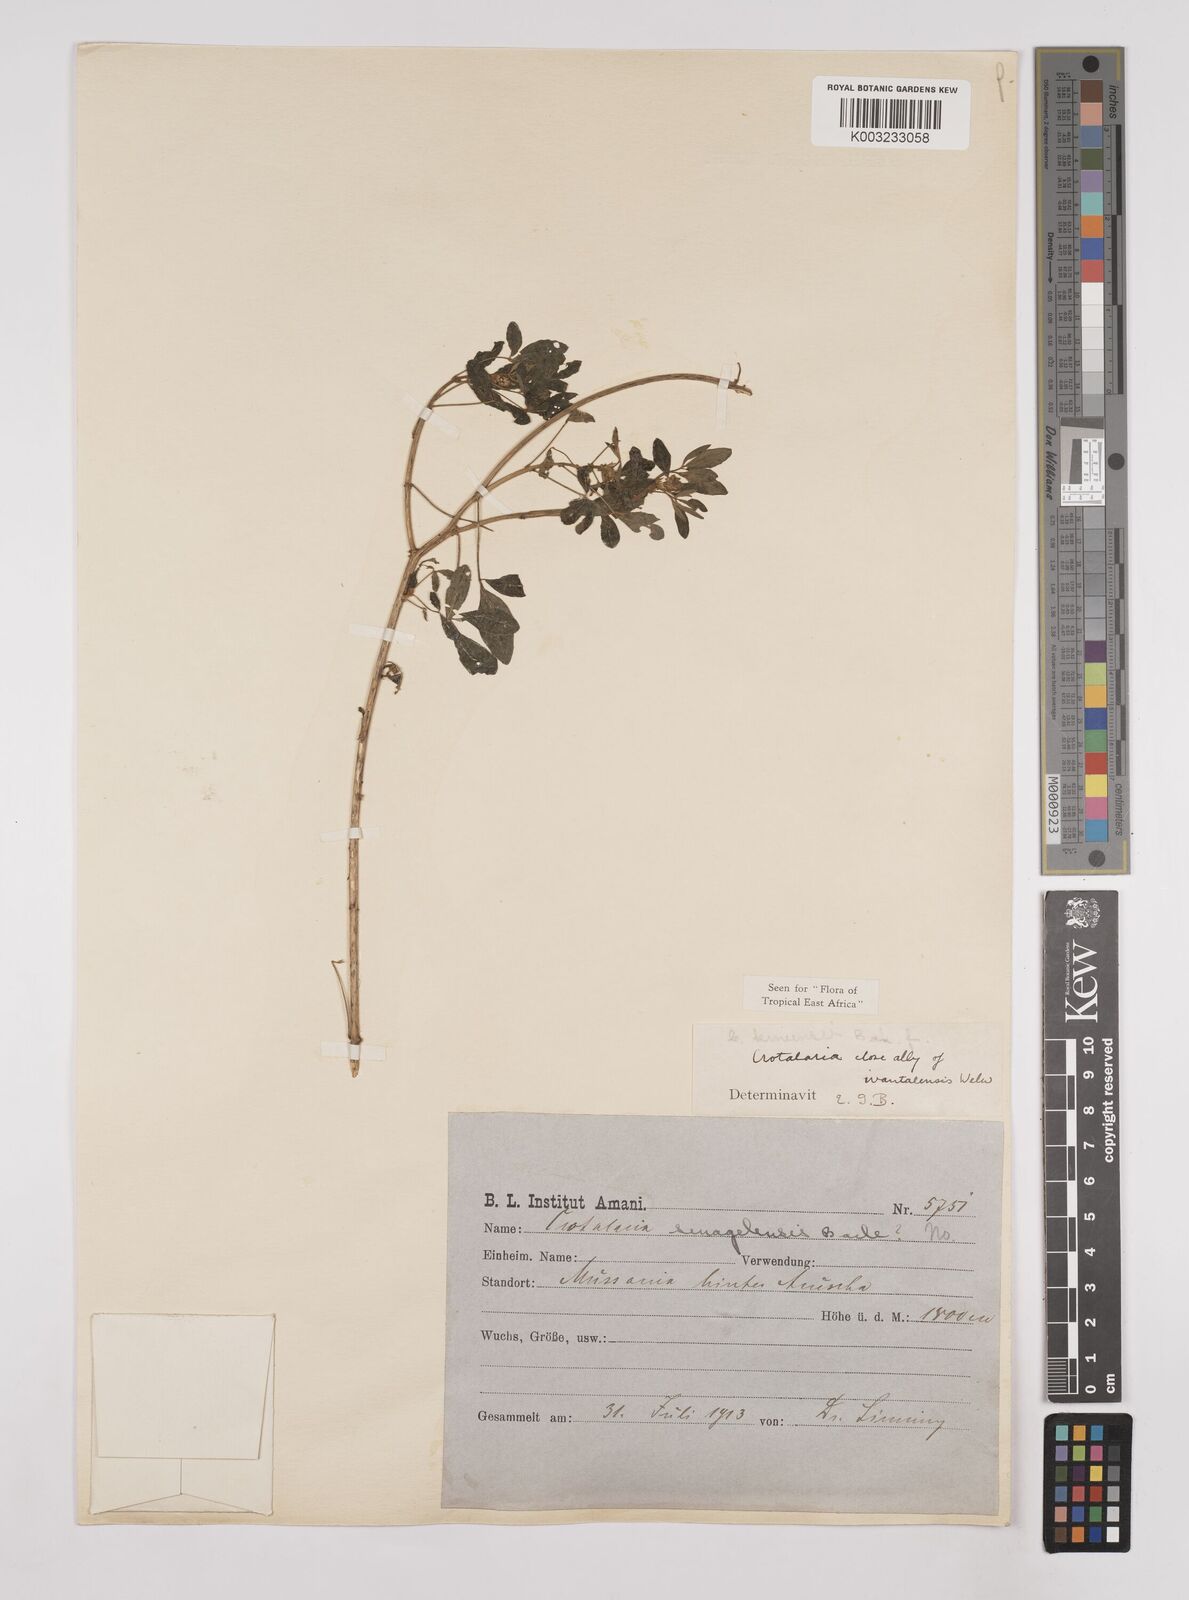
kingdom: Plantae
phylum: Tracheophyta
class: Magnoliopsida
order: Fabales
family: Fabaceae
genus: Crotalaria
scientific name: Crotalaria keniensis
